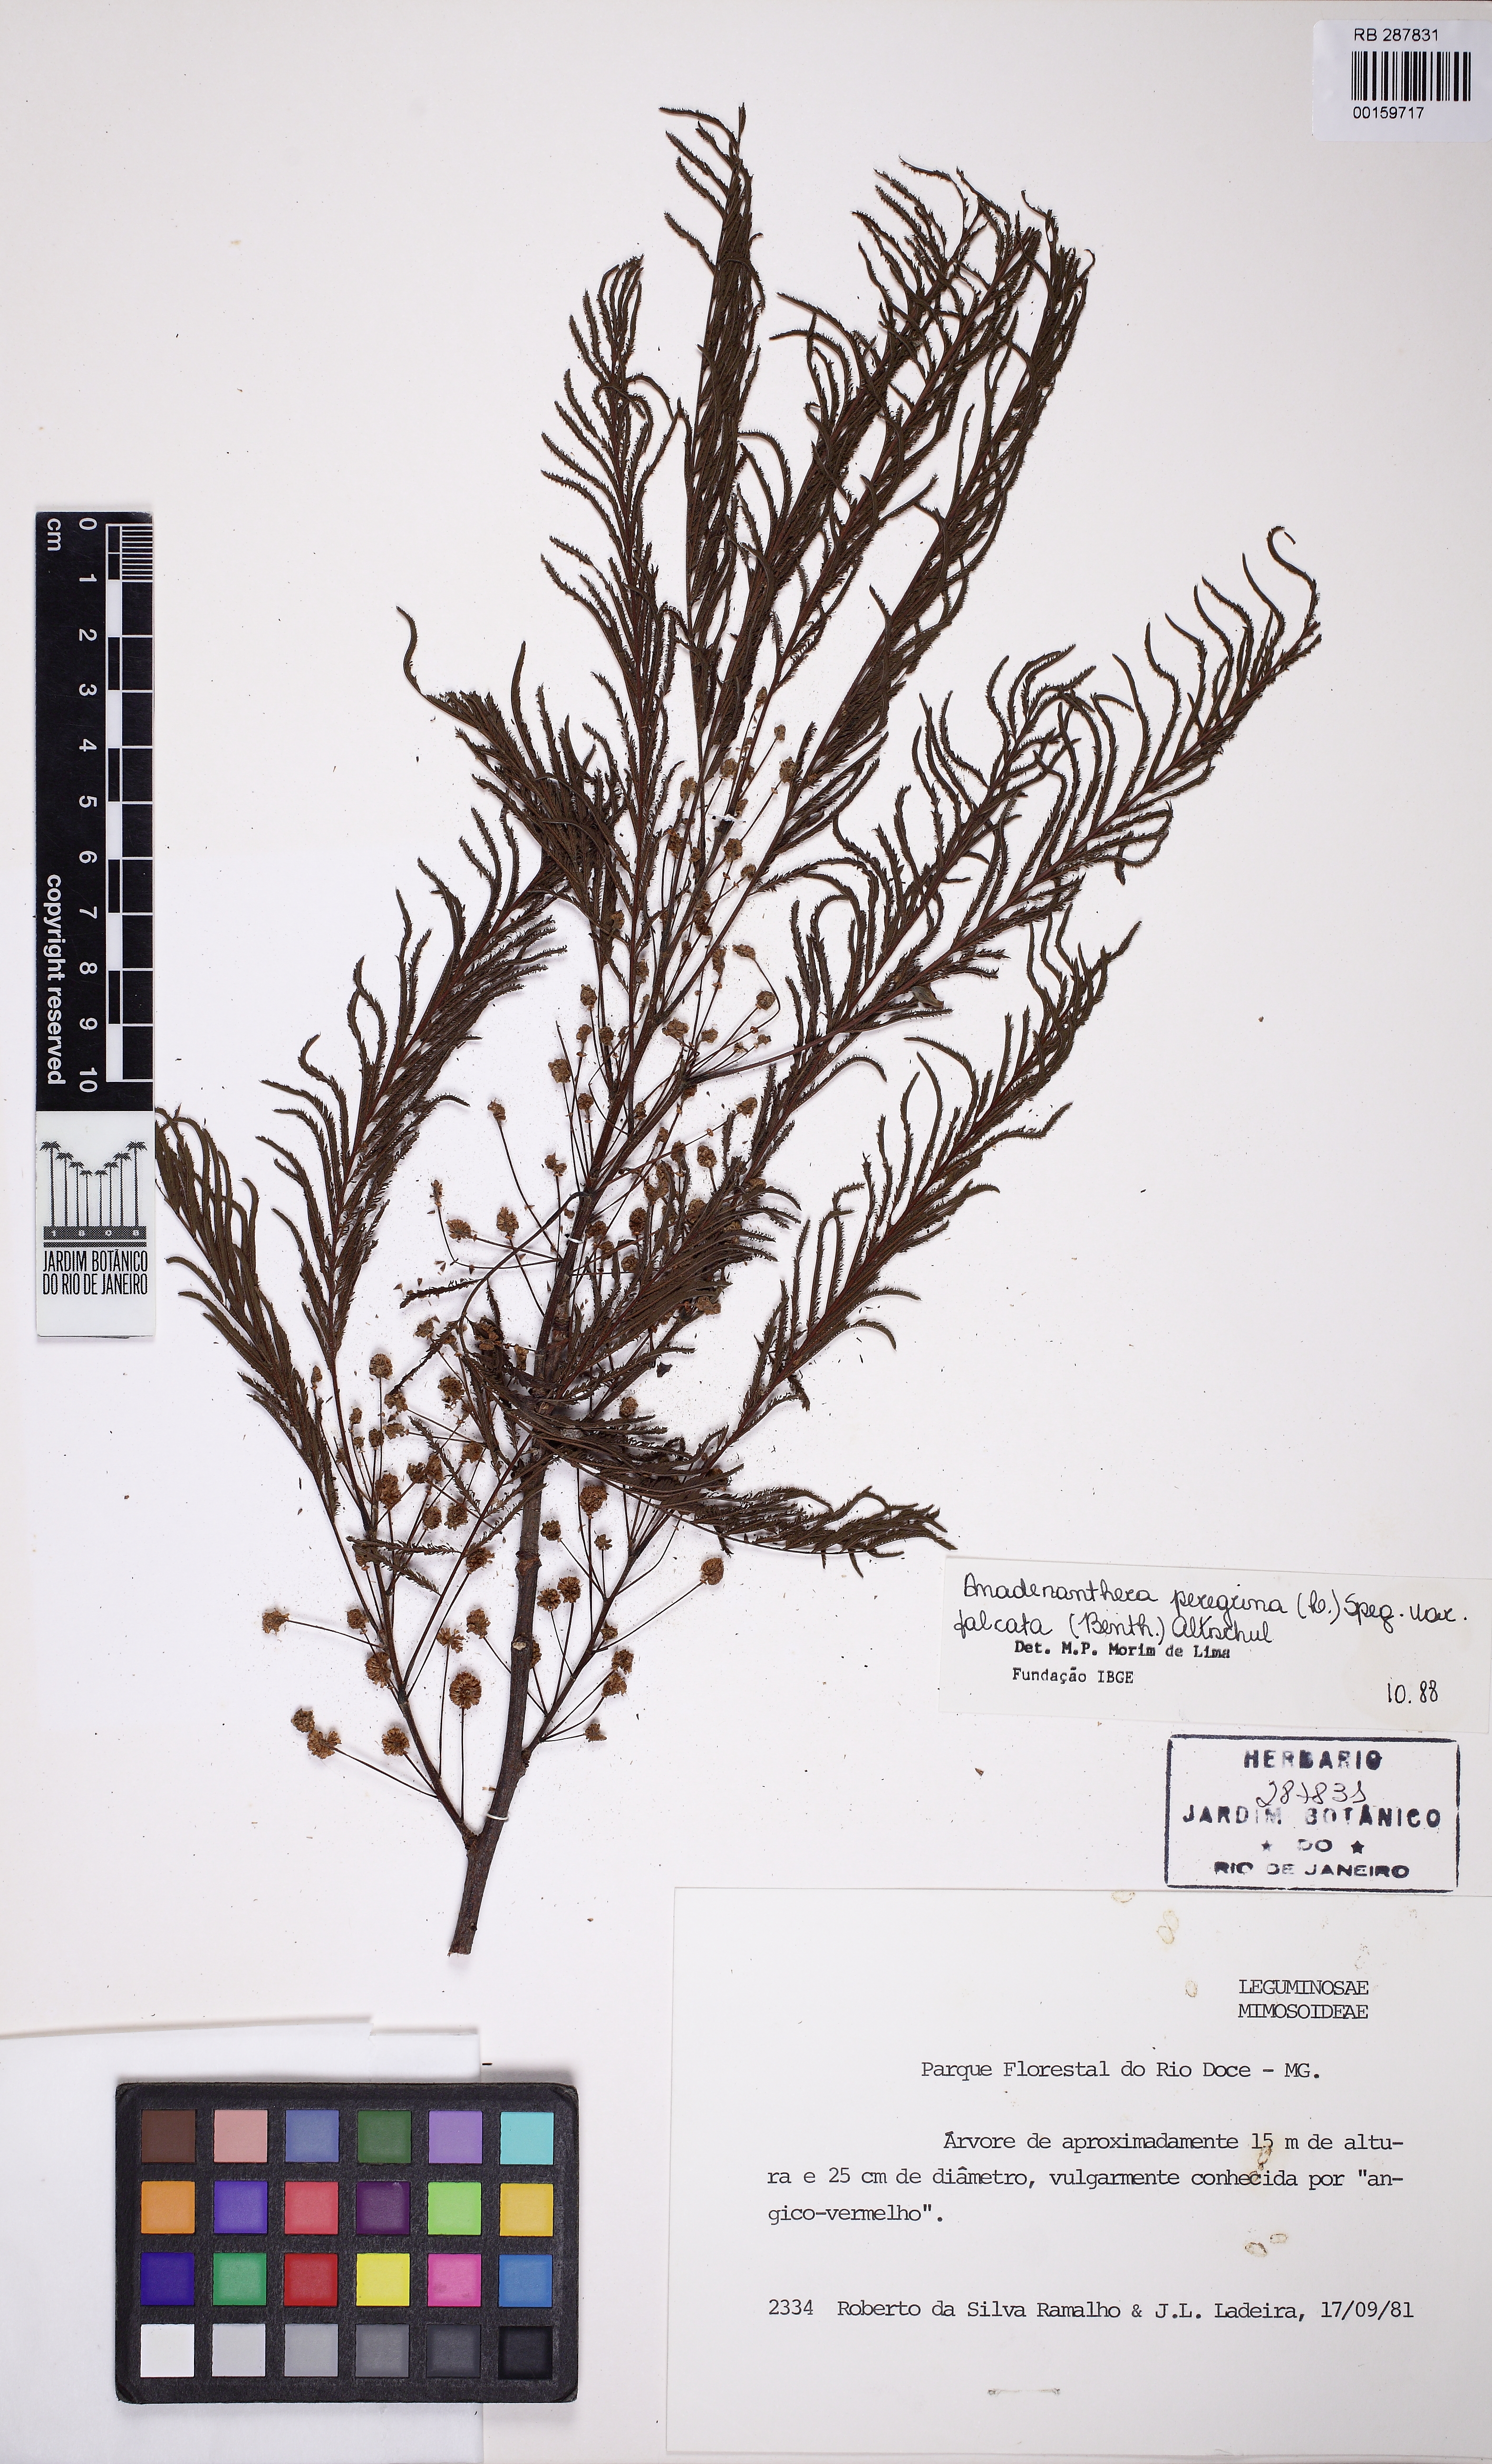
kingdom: Plantae
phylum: Tracheophyta
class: Magnoliopsida
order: Fabales
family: Fabaceae
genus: Anadenanthera
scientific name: Anadenanthera peregrina
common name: Cohoba
